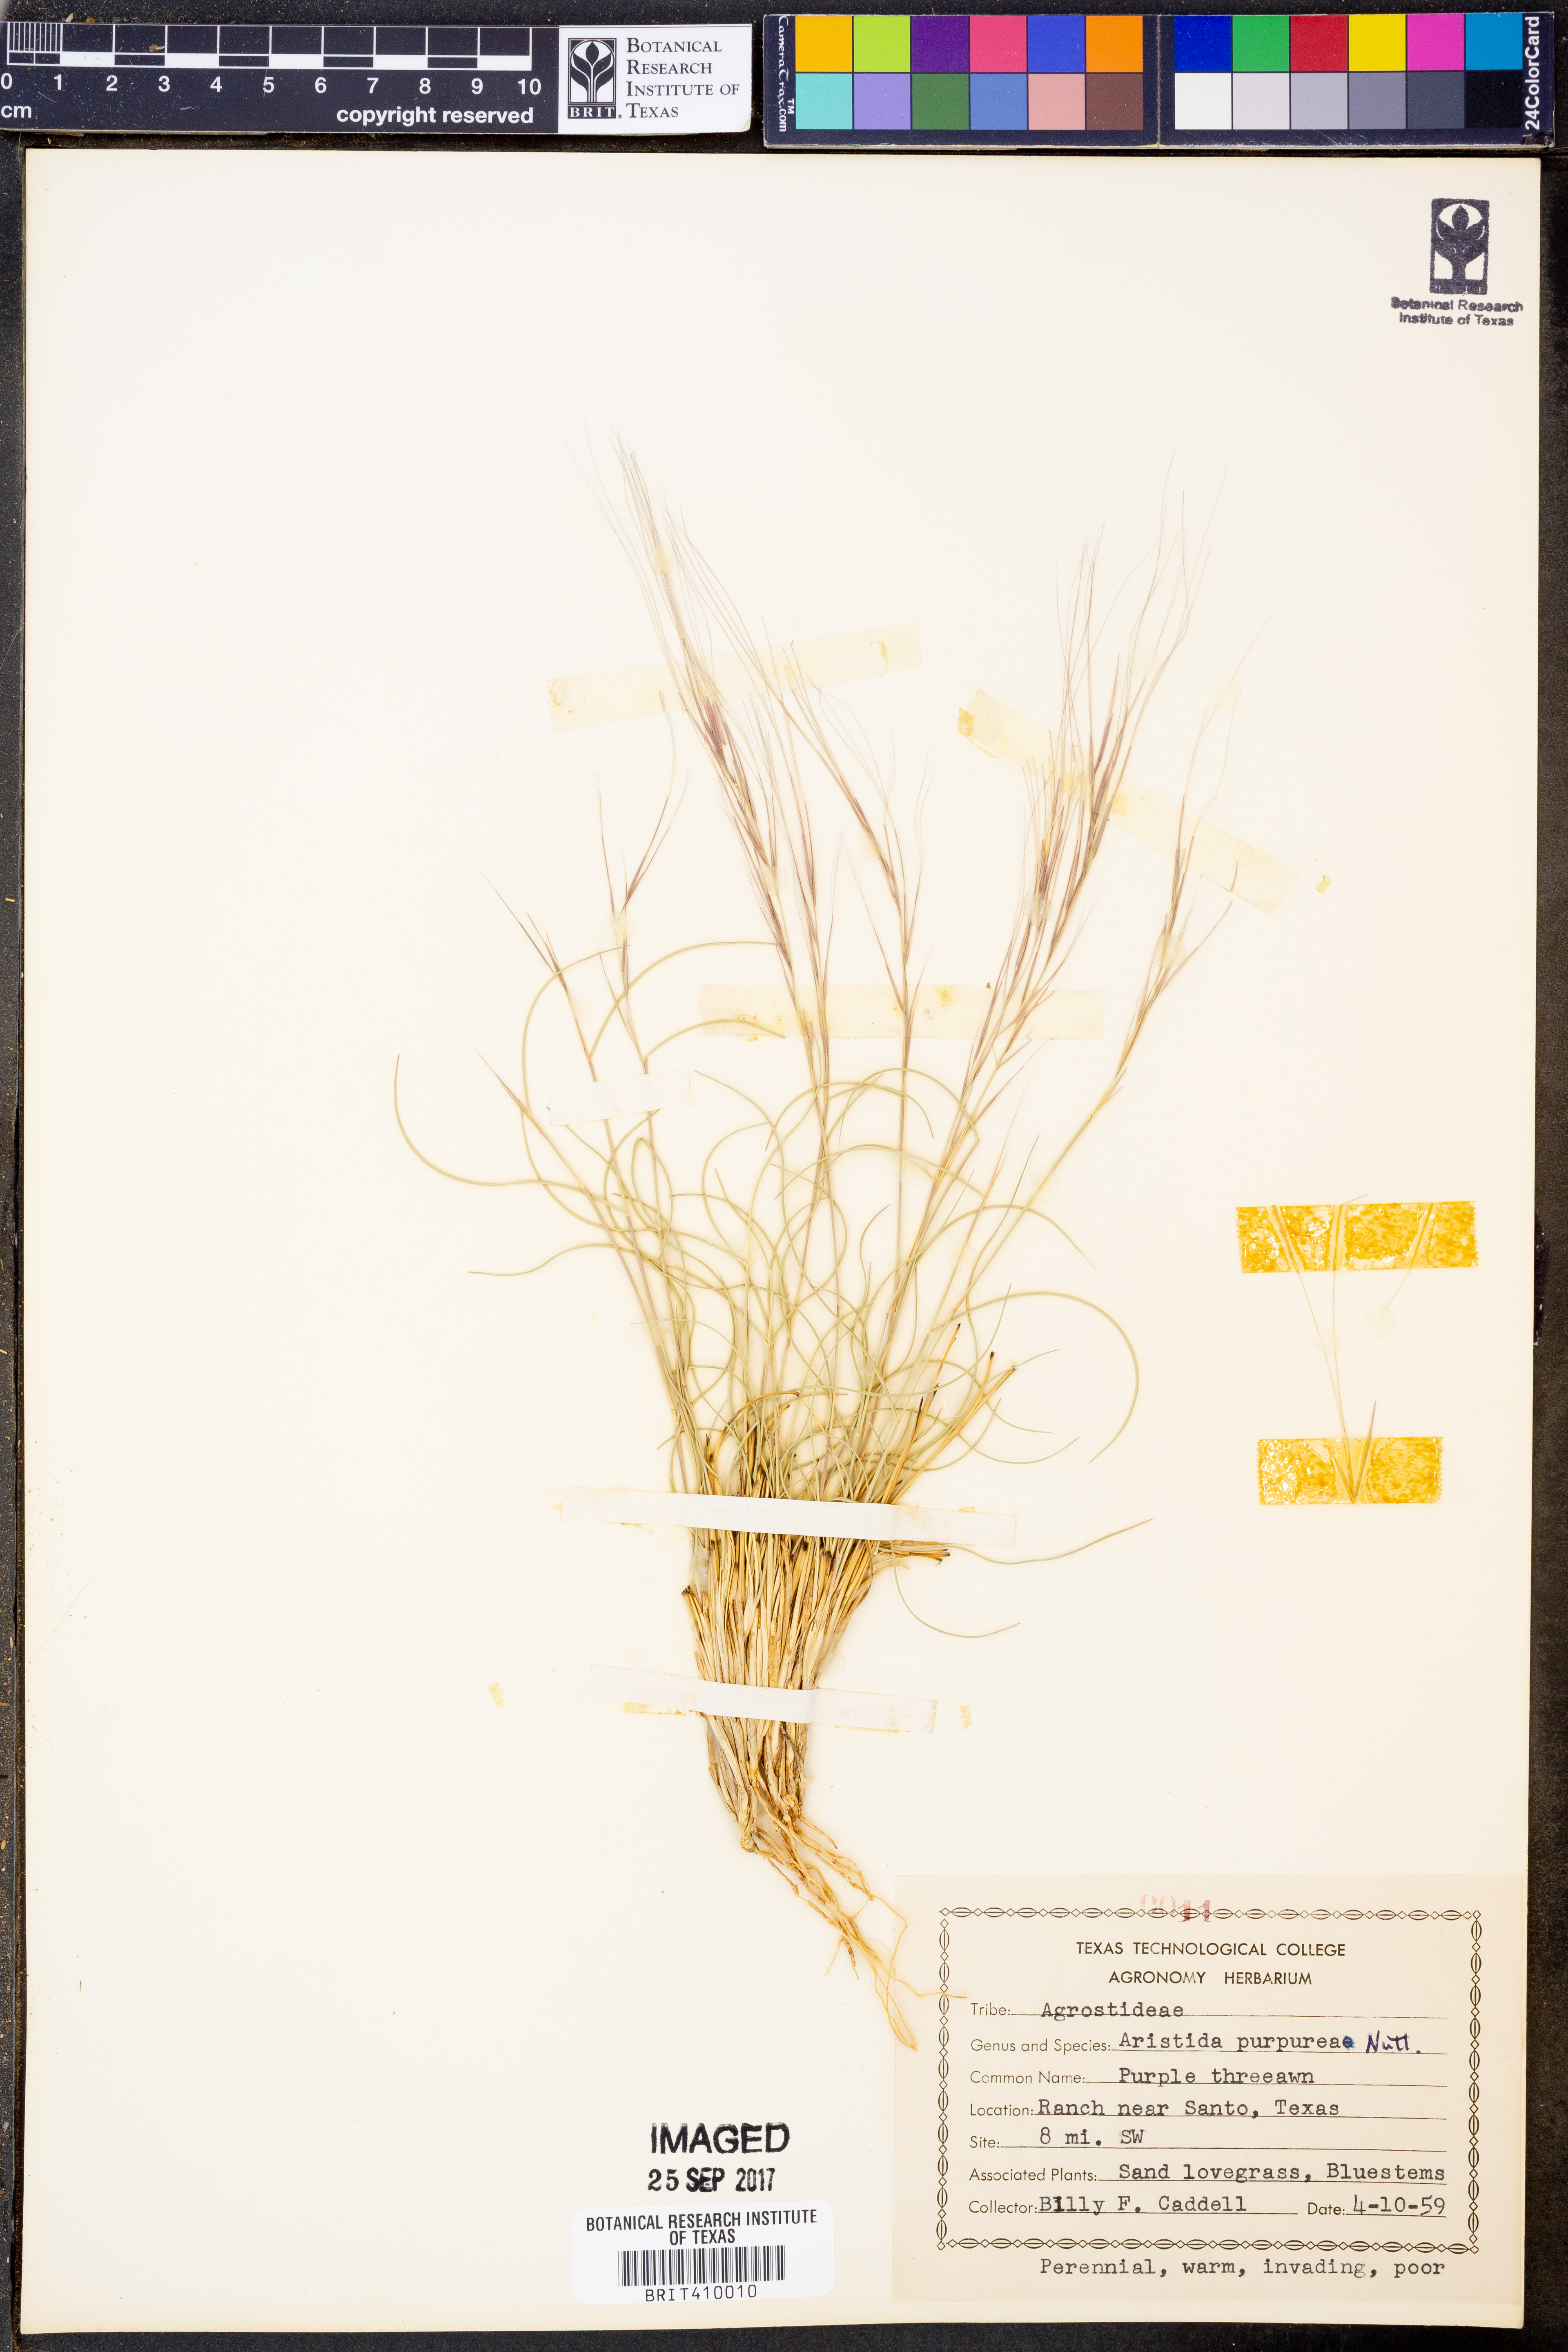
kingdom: Plantae
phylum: Tracheophyta
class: Liliopsida
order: Poales
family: Poaceae
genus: Aristida
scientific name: Aristida purpurea
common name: Purple threeawn
